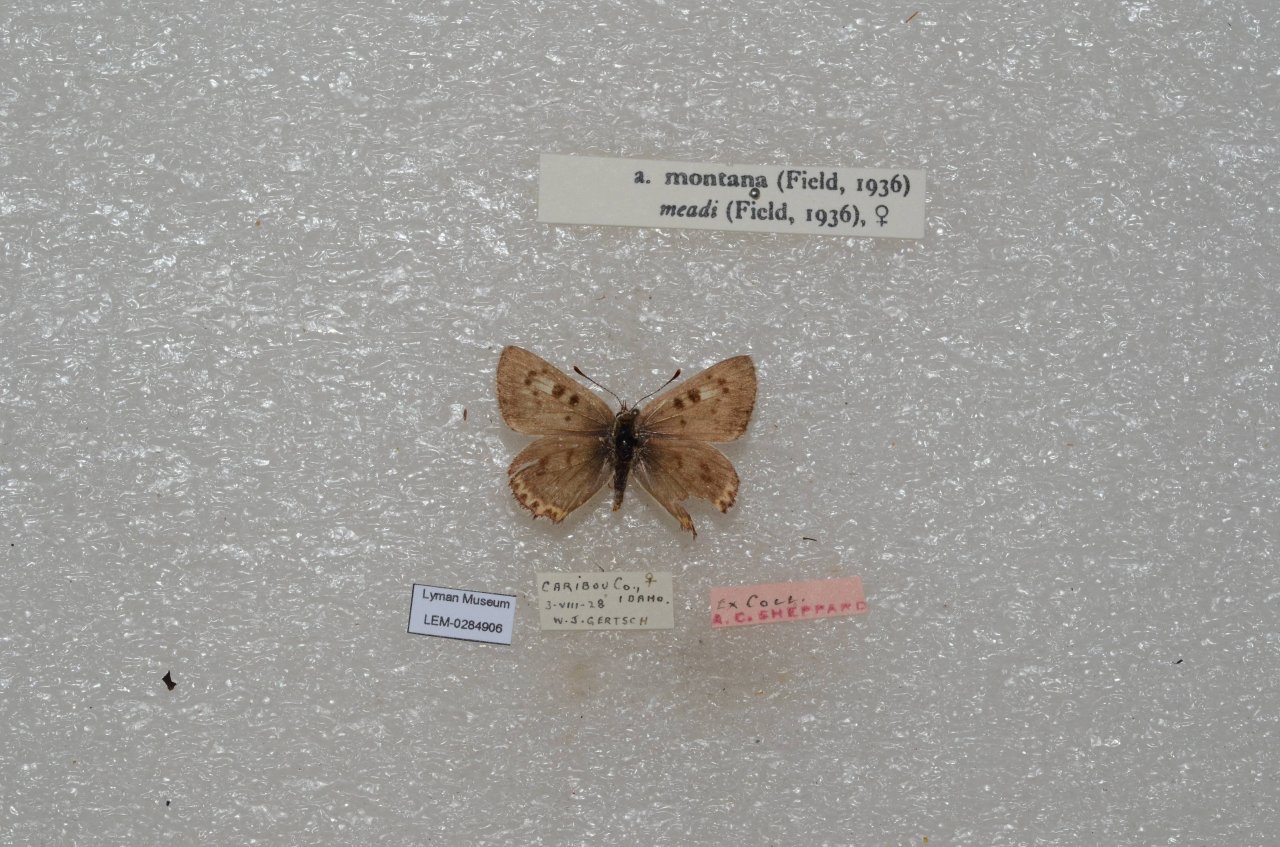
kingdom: Animalia
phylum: Arthropoda
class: Insecta
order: Lepidoptera
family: Lycaenidae
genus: Lycaena
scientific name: Lycaena editha
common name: Edith's Copper
